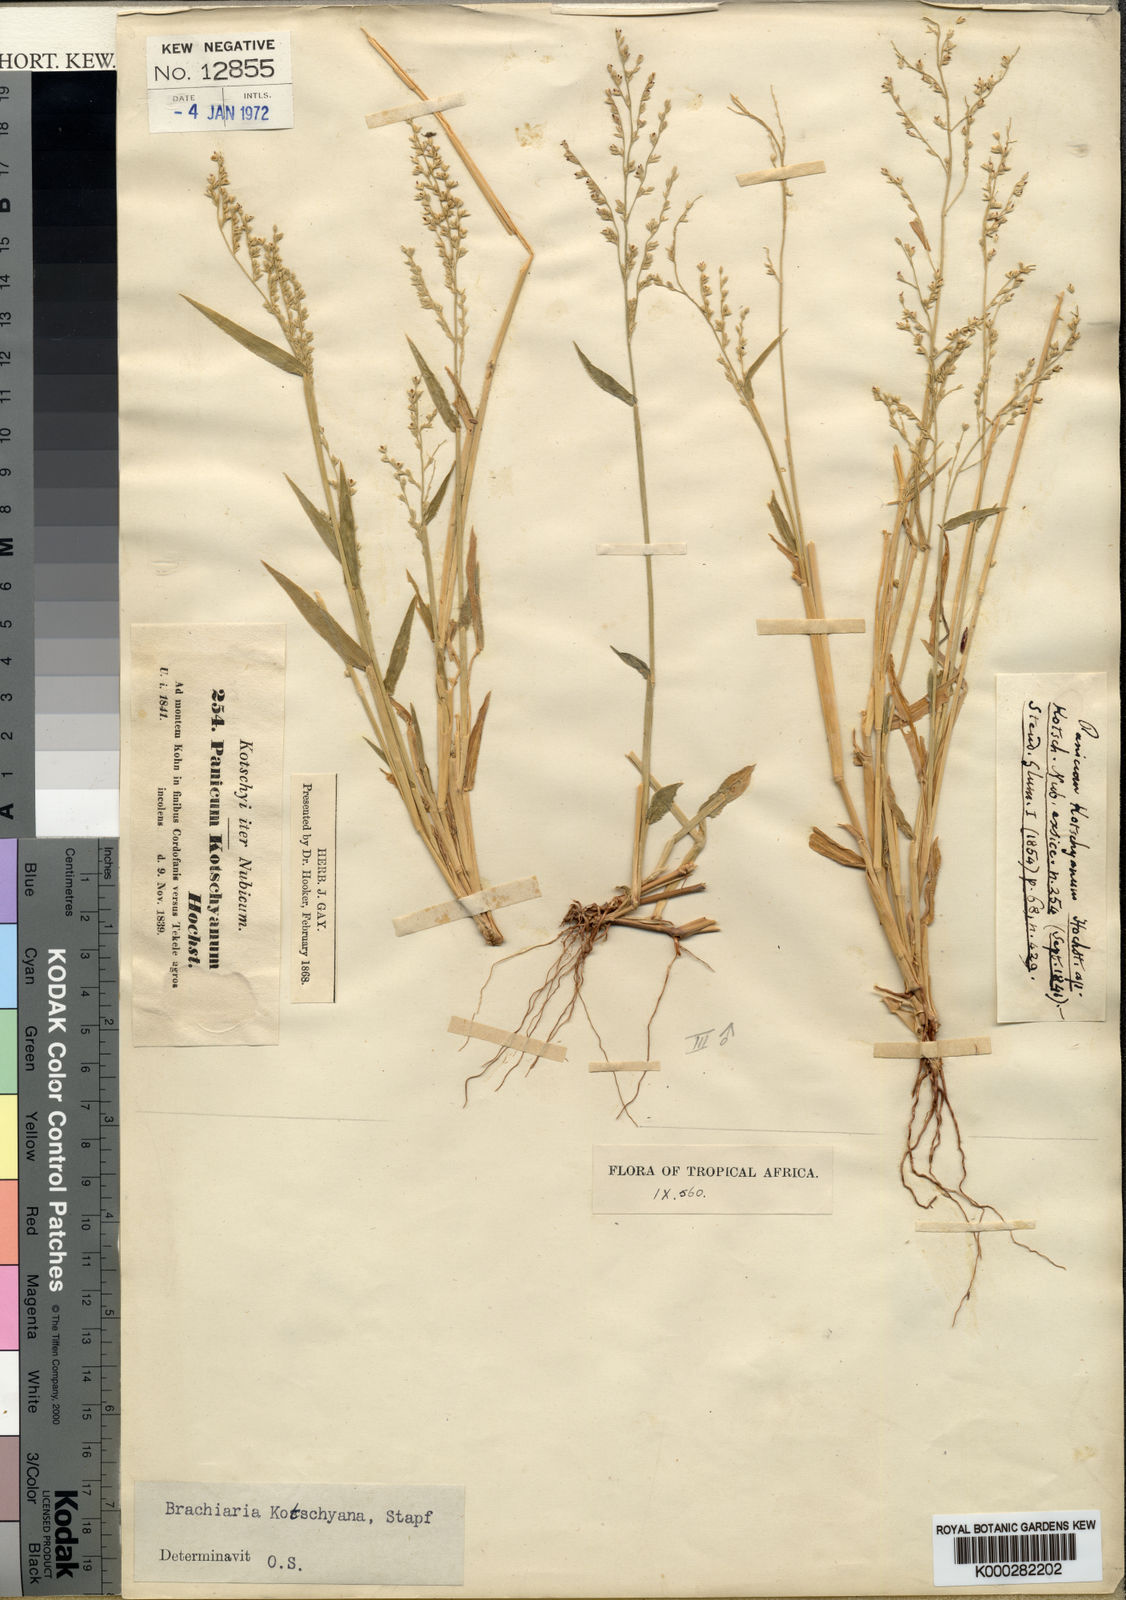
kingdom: Plantae
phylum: Tracheophyta
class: Liliopsida
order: Poales
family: Poaceae
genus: Urochloa
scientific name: Urochloa comata
